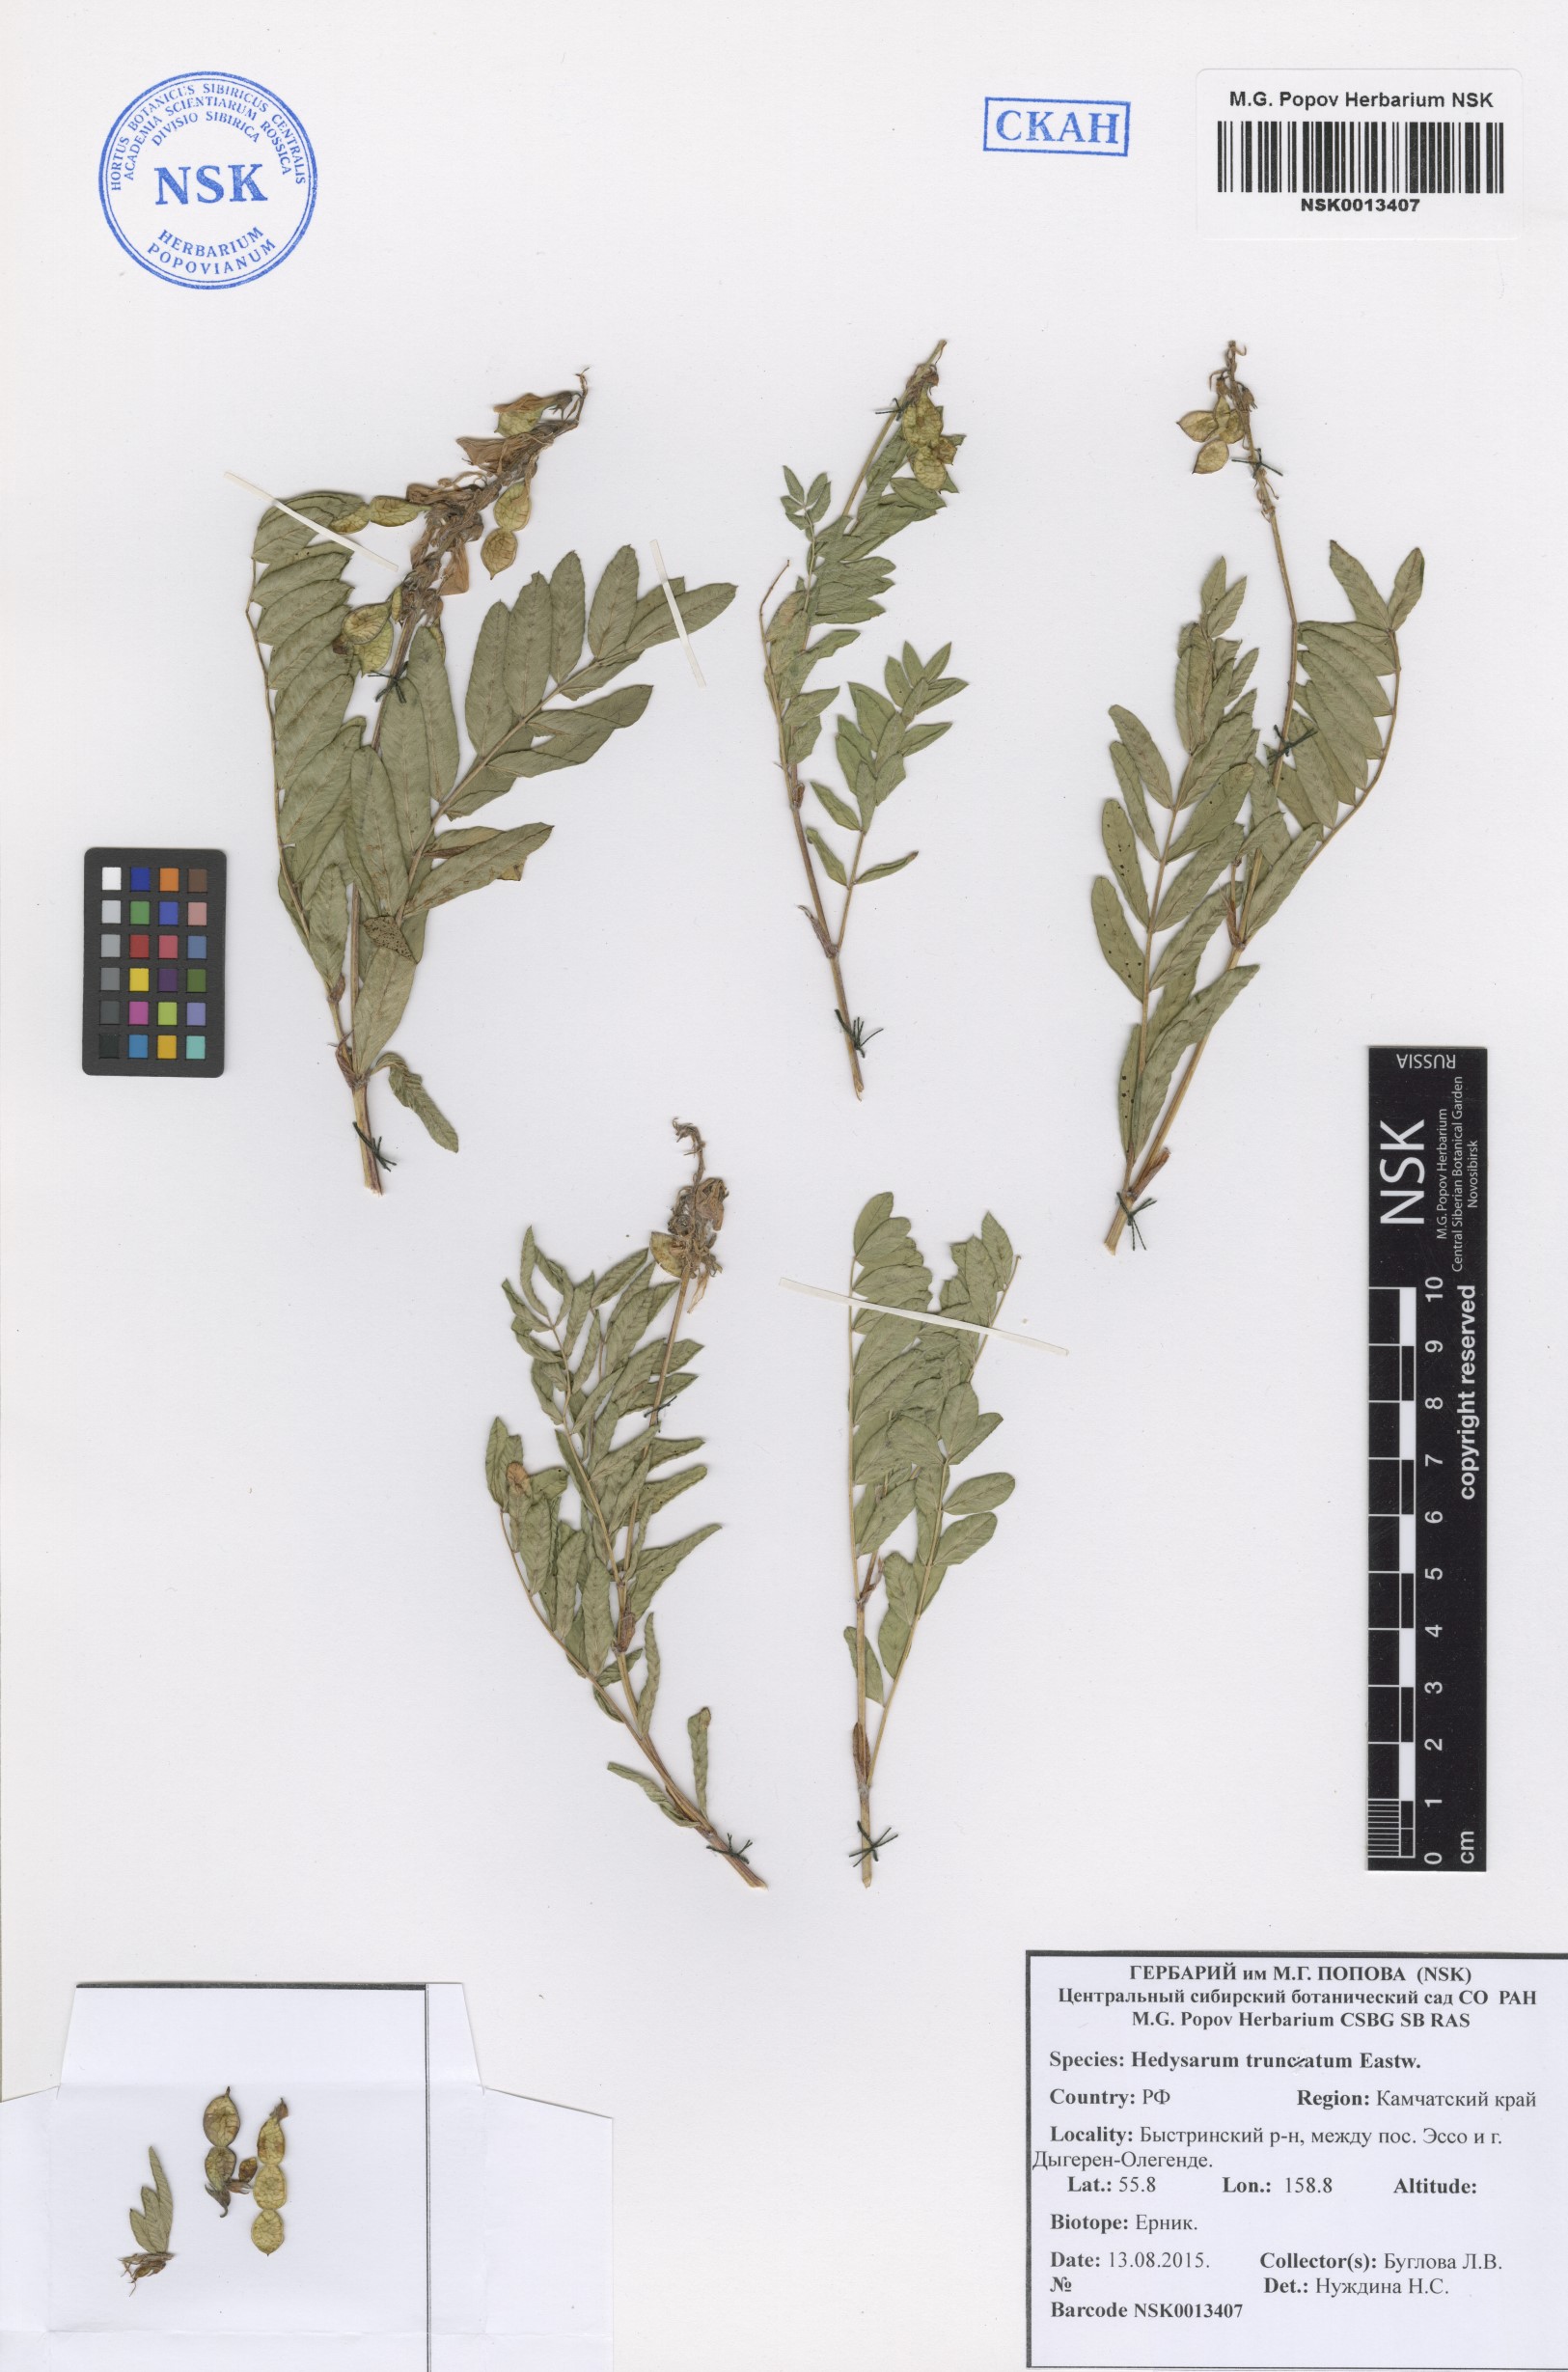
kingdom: Plantae
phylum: Tracheophyta
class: Magnoliopsida
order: Fabales
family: Fabaceae
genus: Hedysarum
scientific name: Hedysarum truncatum
